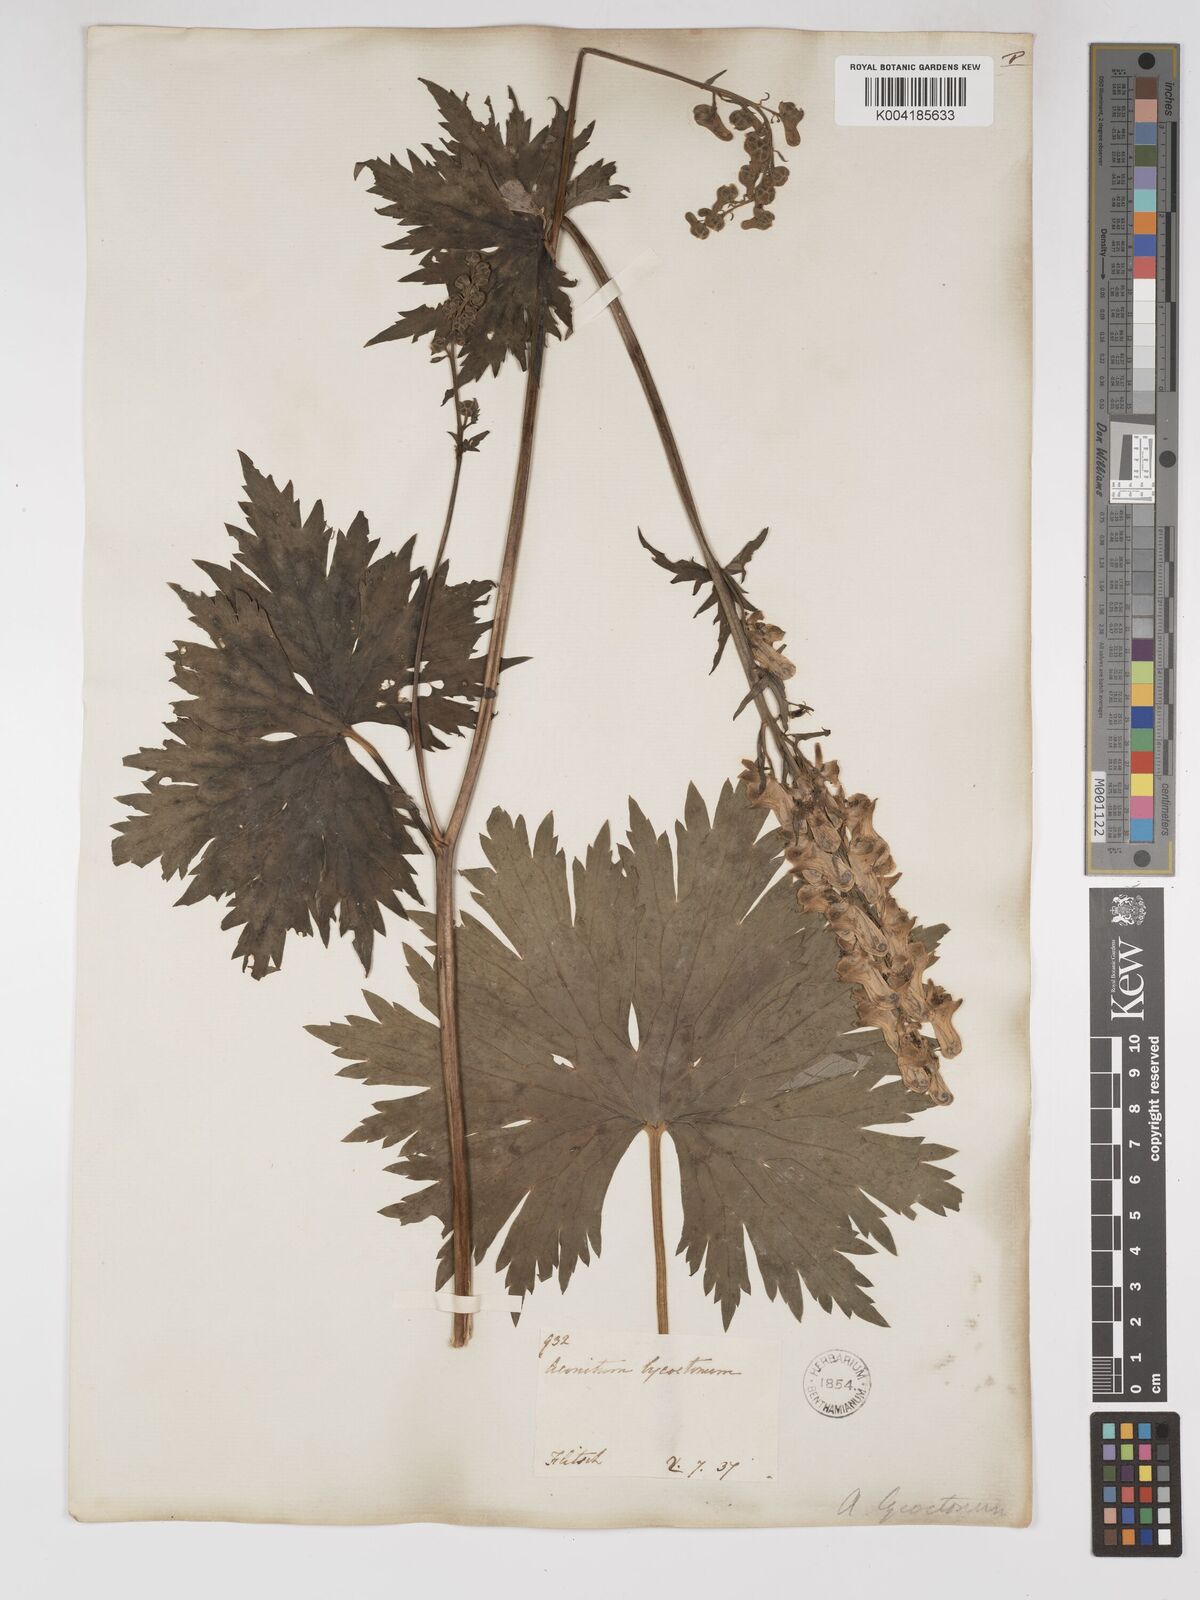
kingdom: Plantae
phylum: Tracheophyta
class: Magnoliopsida
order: Ranunculales
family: Ranunculaceae
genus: Aconitum
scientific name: Aconitum lycoctonum
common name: Wolf's-bane
